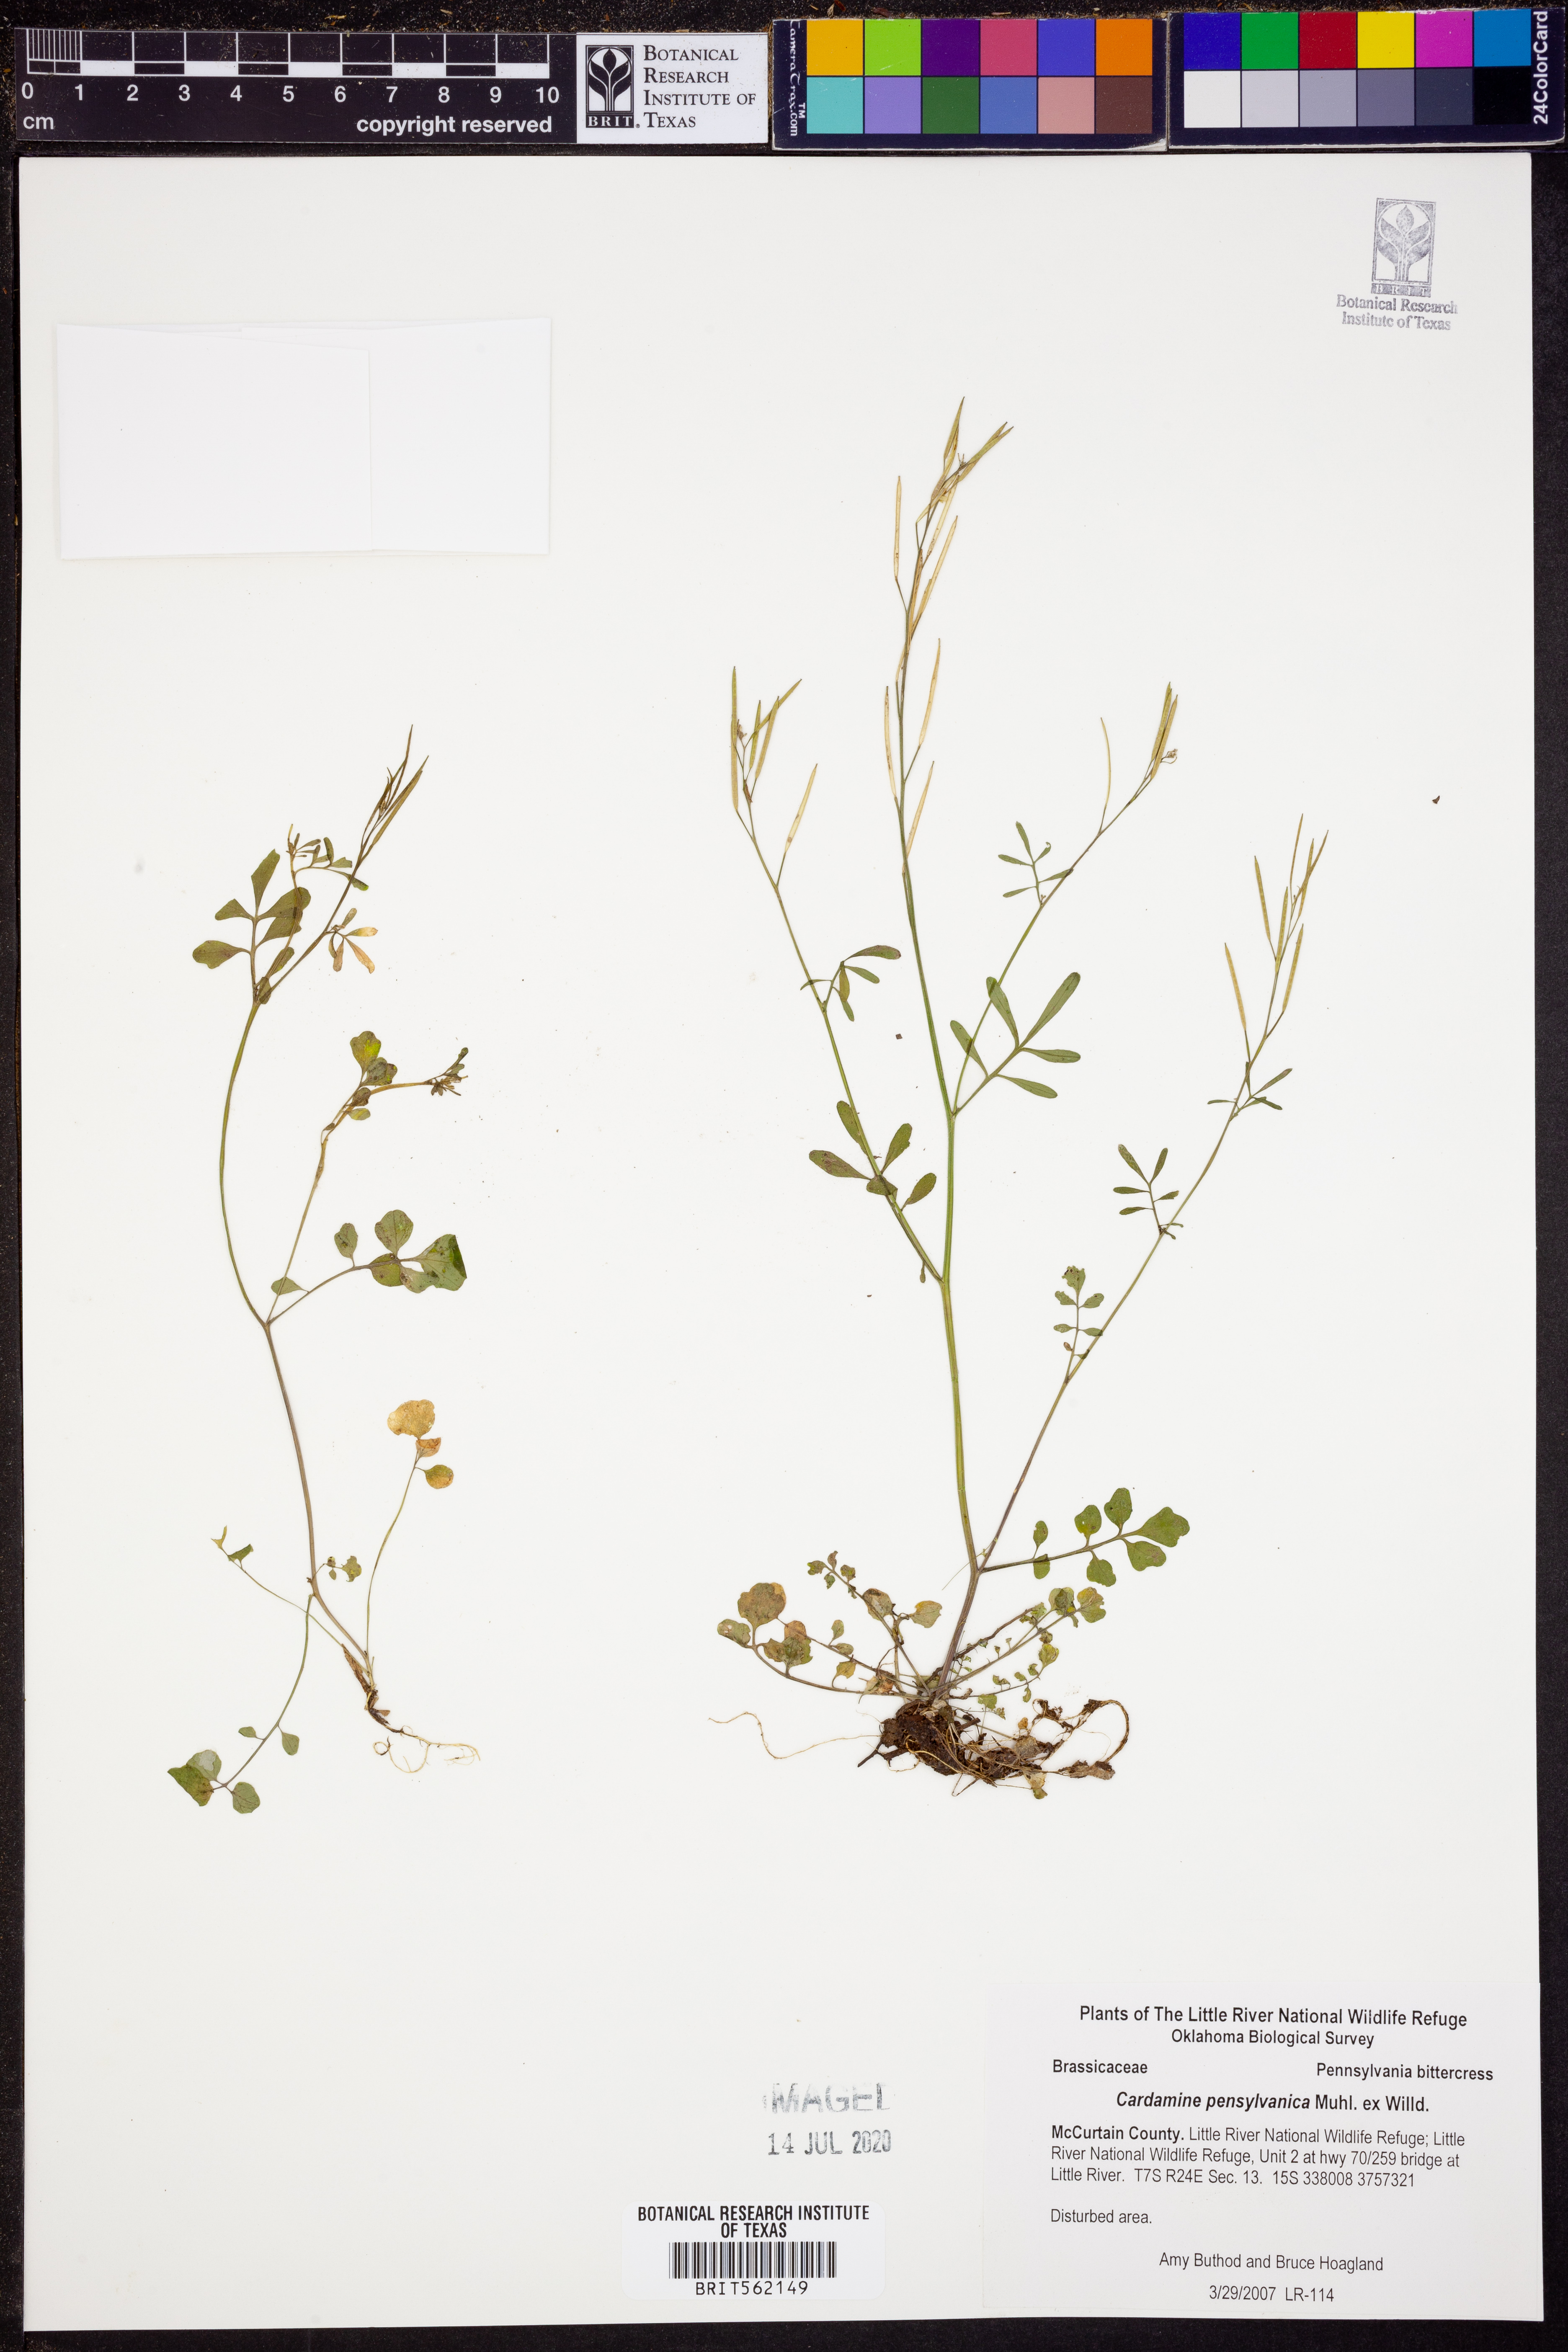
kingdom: Plantae
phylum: Tracheophyta
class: Magnoliopsida
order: Brassicales
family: Brassicaceae
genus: Cardamine
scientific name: Cardamine pensylvanica
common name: Pennsylvania bittercress
